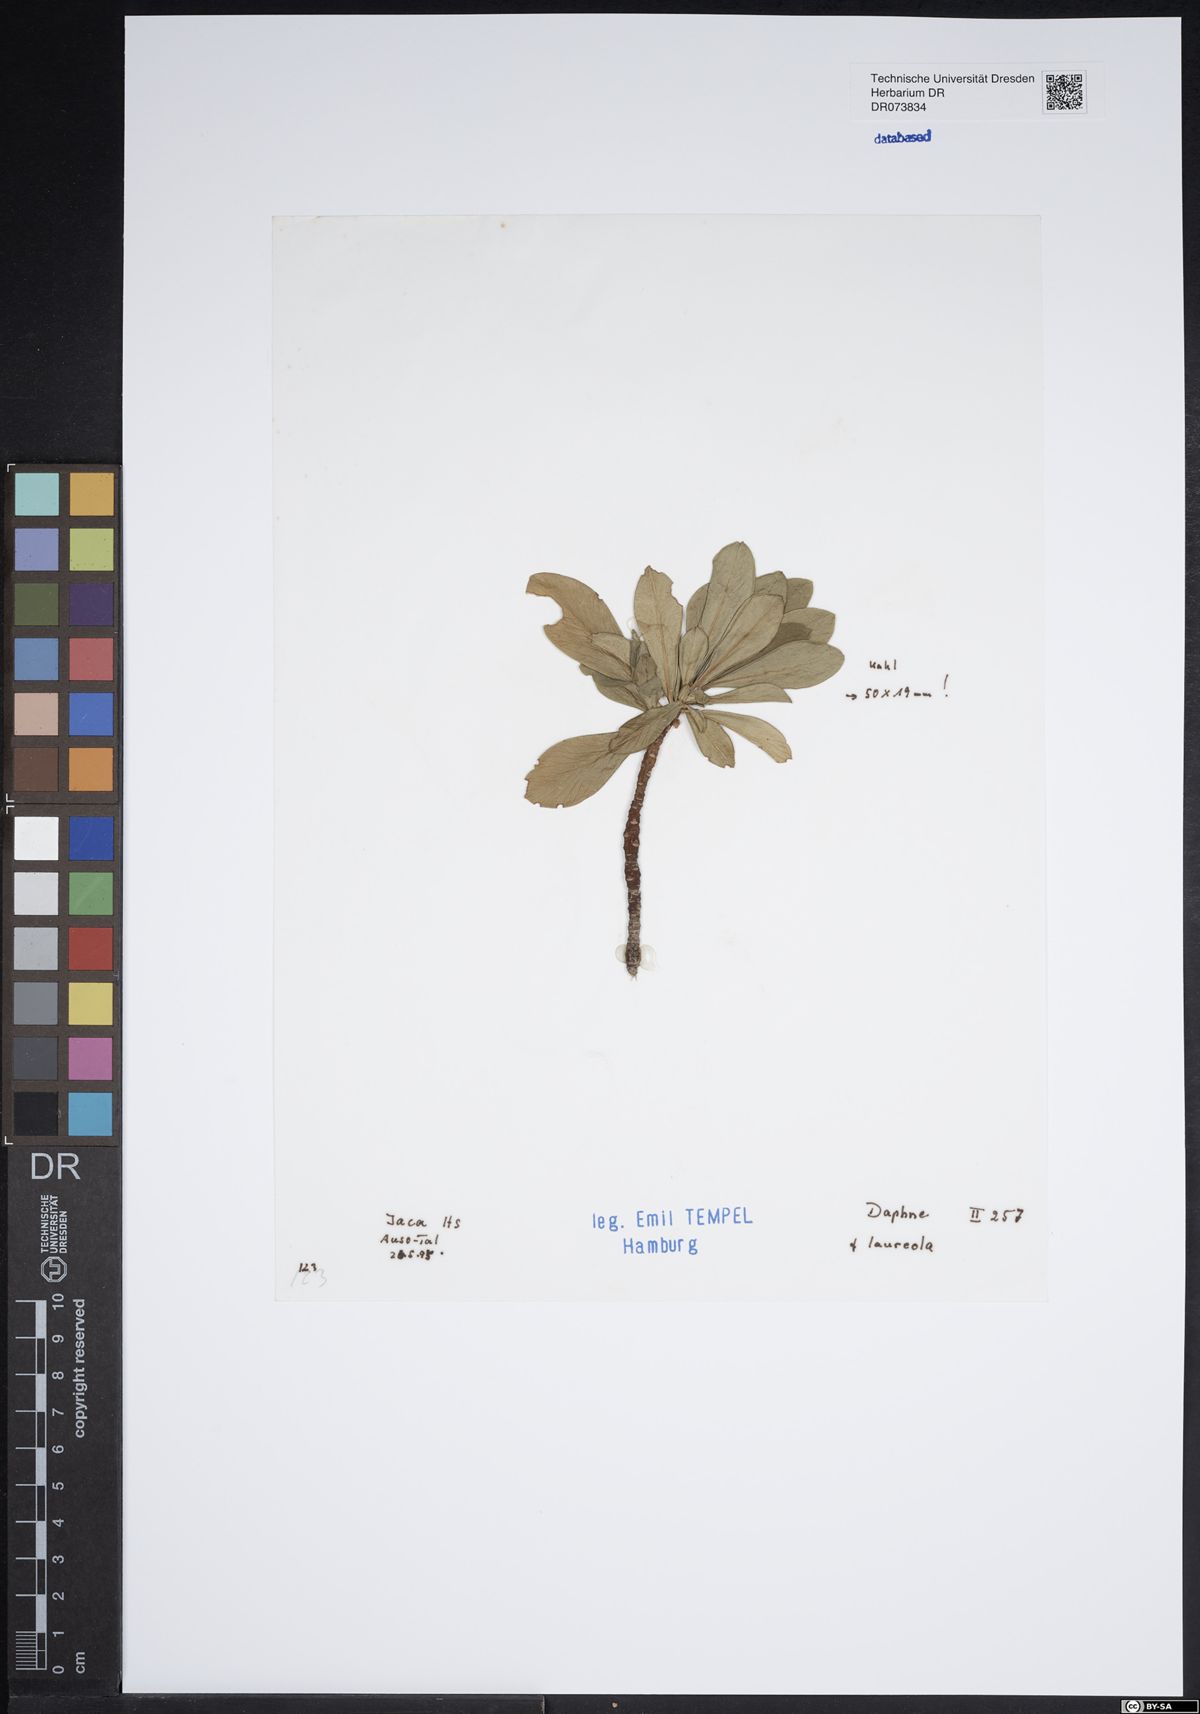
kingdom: Plantae
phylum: Tracheophyta
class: Magnoliopsida
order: Malvales
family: Thymelaeaceae
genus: Daphne
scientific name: Daphne laureola
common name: Spurge-laurel
